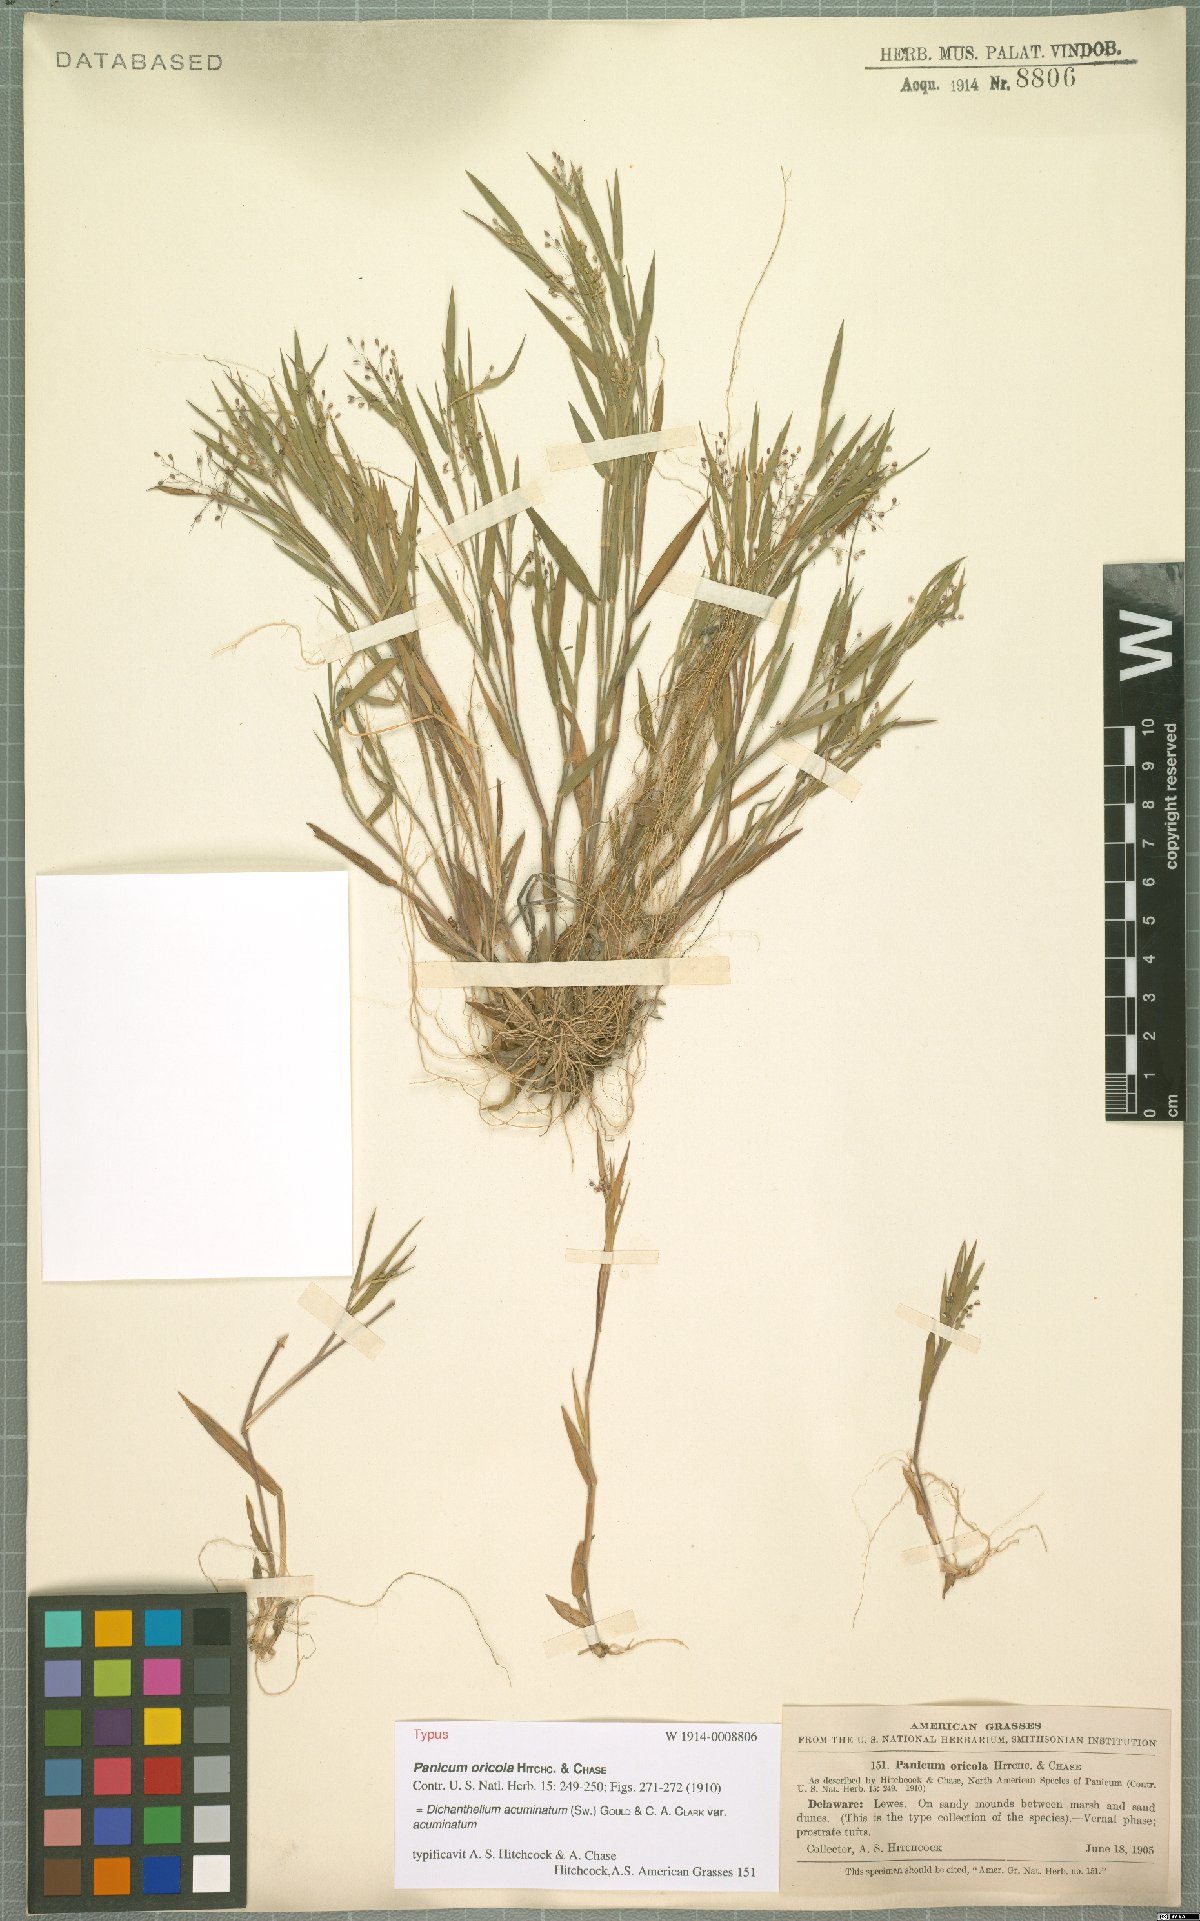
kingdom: Plantae
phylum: Tracheophyta
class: Liliopsida
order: Poales
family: Poaceae
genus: Dichanthelium
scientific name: Dichanthelium acuminatum
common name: Hairy panic grass
